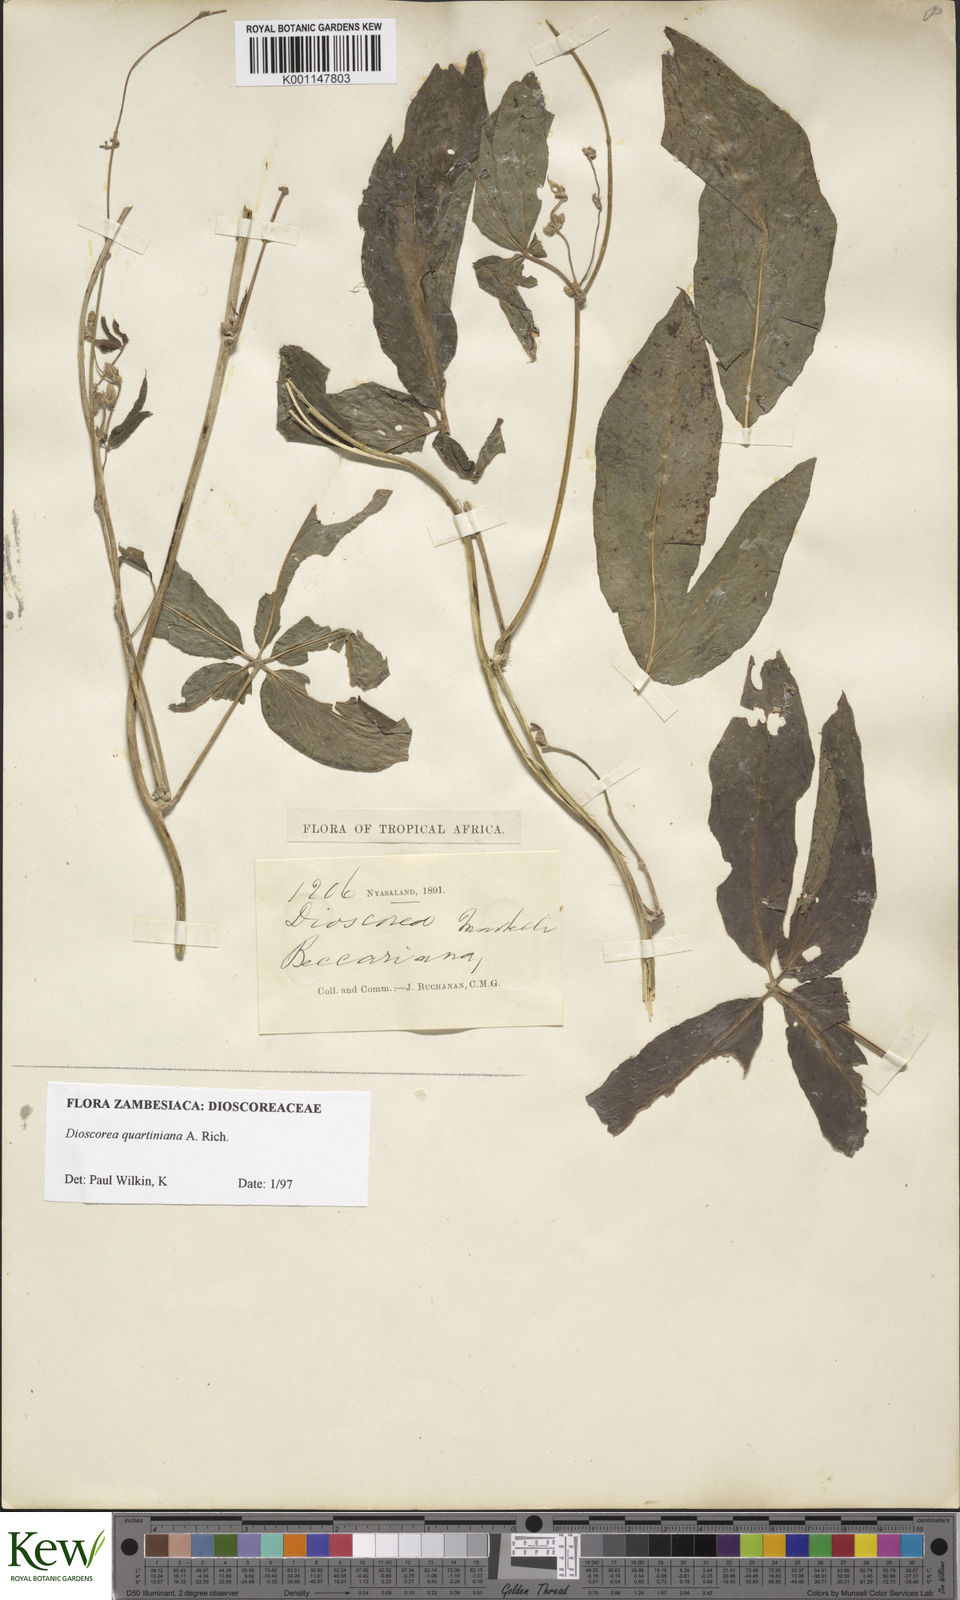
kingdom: Plantae
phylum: Tracheophyta
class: Liliopsida
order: Dioscoreales
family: Dioscoreaceae
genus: Dioscorea
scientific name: Dioscorea quartiniana
